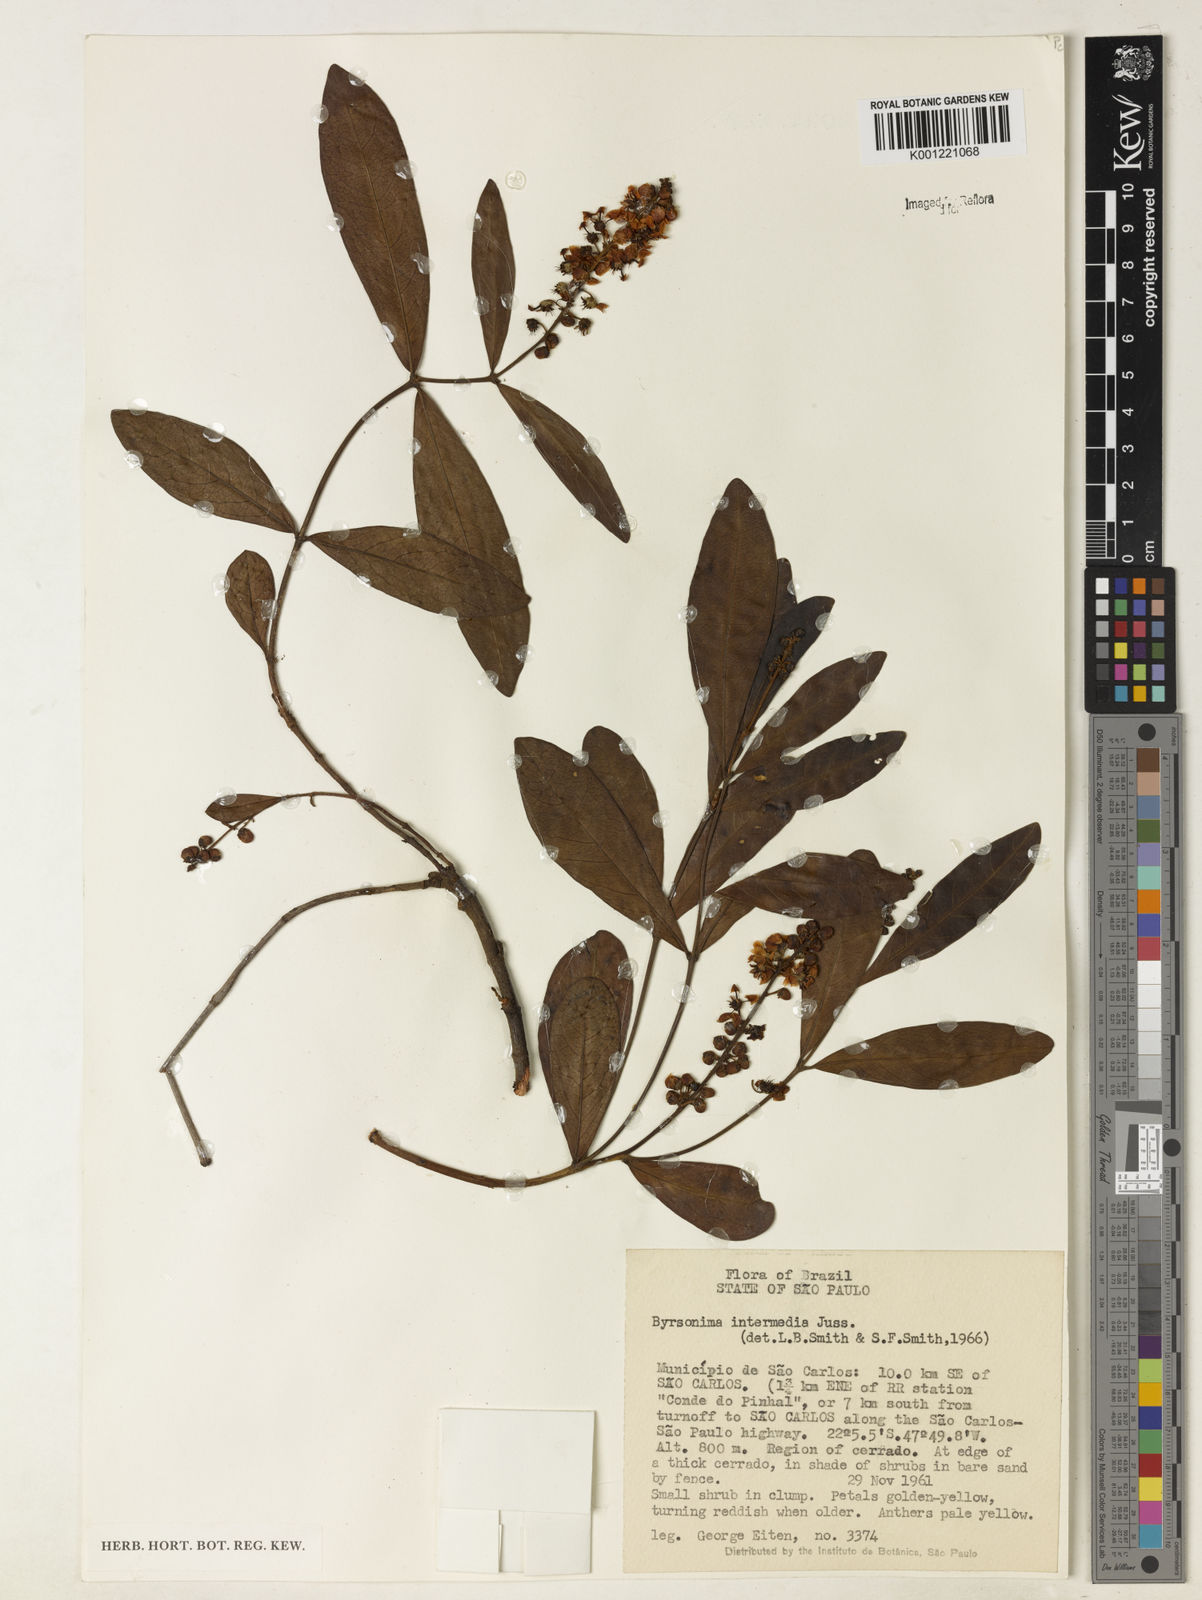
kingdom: Plantae
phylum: Tracheophyta
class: Magnoliopsida
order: Malpighiales
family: Malpighiaceae
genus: Byrsonima
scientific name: Byrsonima intermedia
